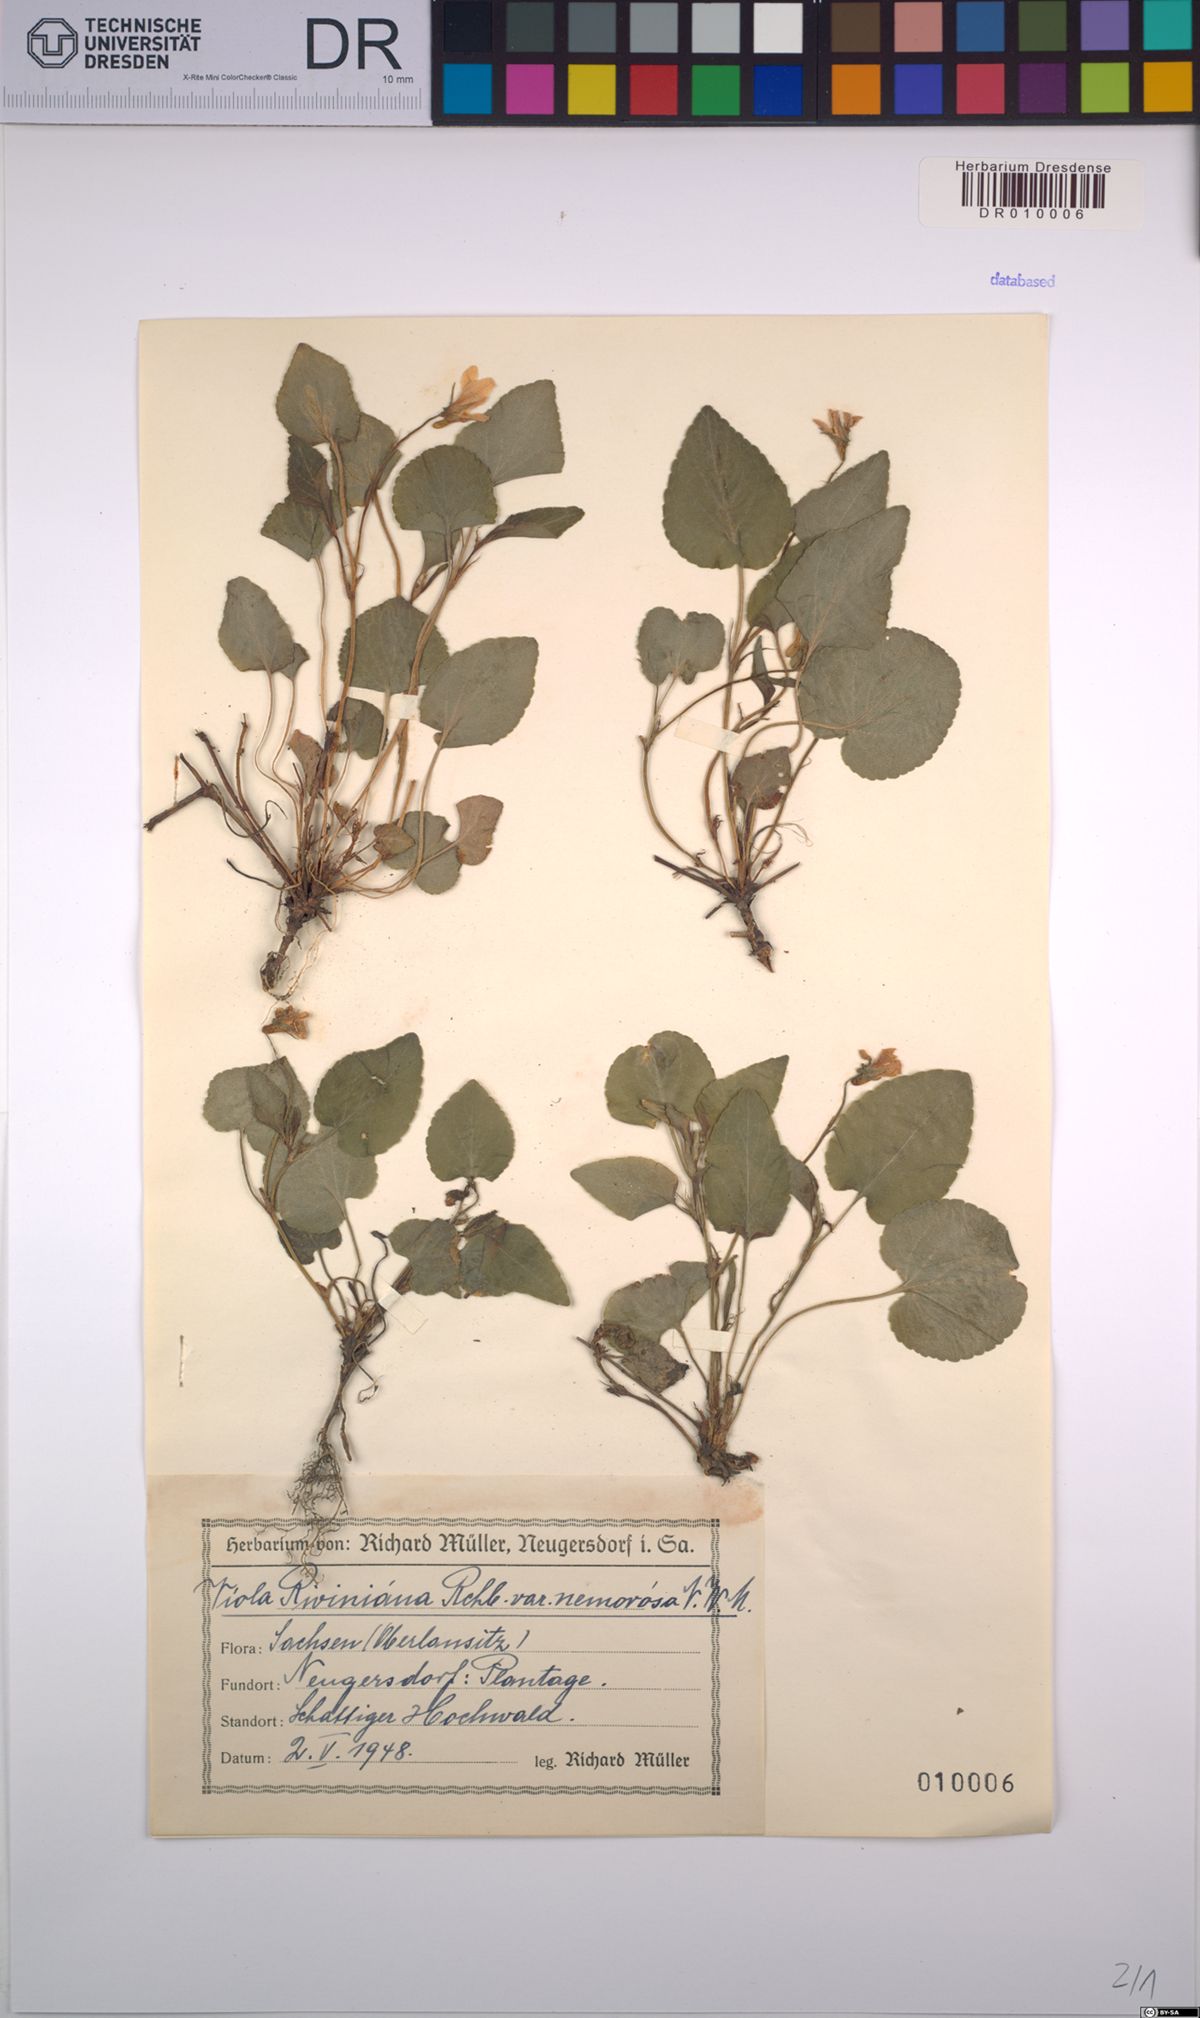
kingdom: Plantae
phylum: Tracheophyta
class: Magnoliopsida
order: Malpighiales
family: Violaceae
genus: Viola
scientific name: Viola riviniana
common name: Common dog-violet
